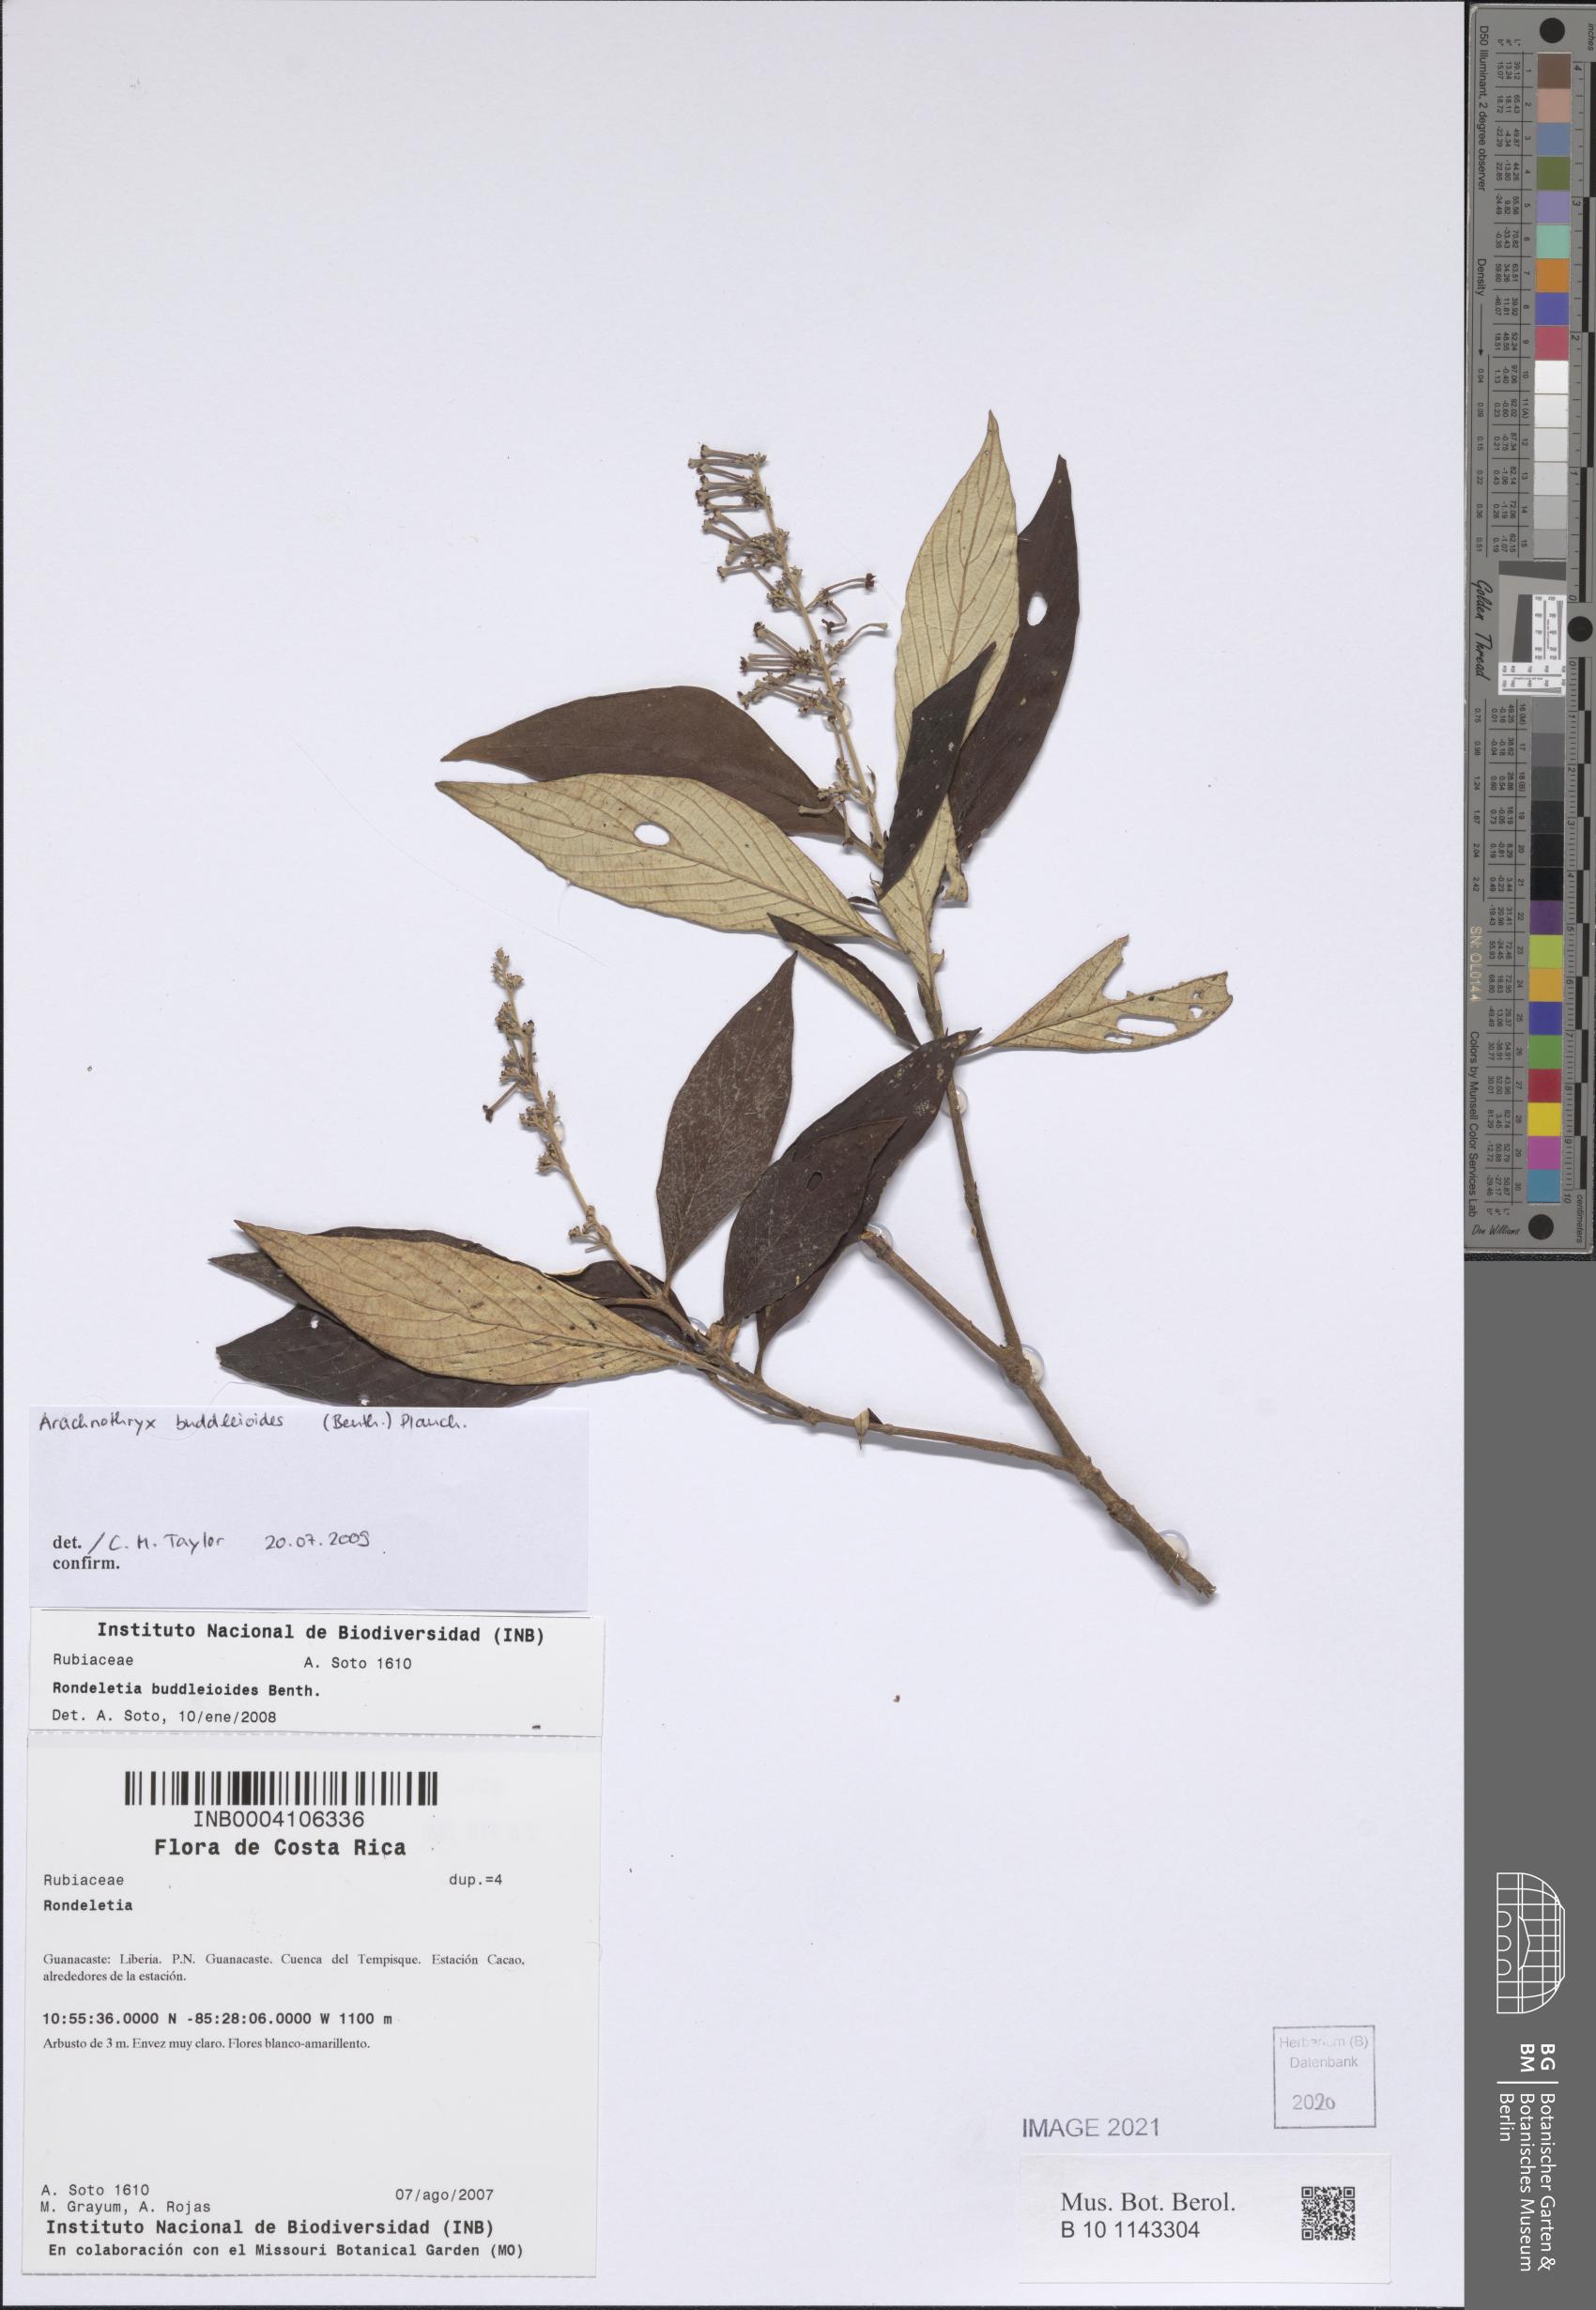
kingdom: Plantae
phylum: Tracheophyta
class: Magnoliopsida
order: Gentianales
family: Rubiaceae
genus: Arachnothryx
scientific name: Arachnothryx buddleioides
